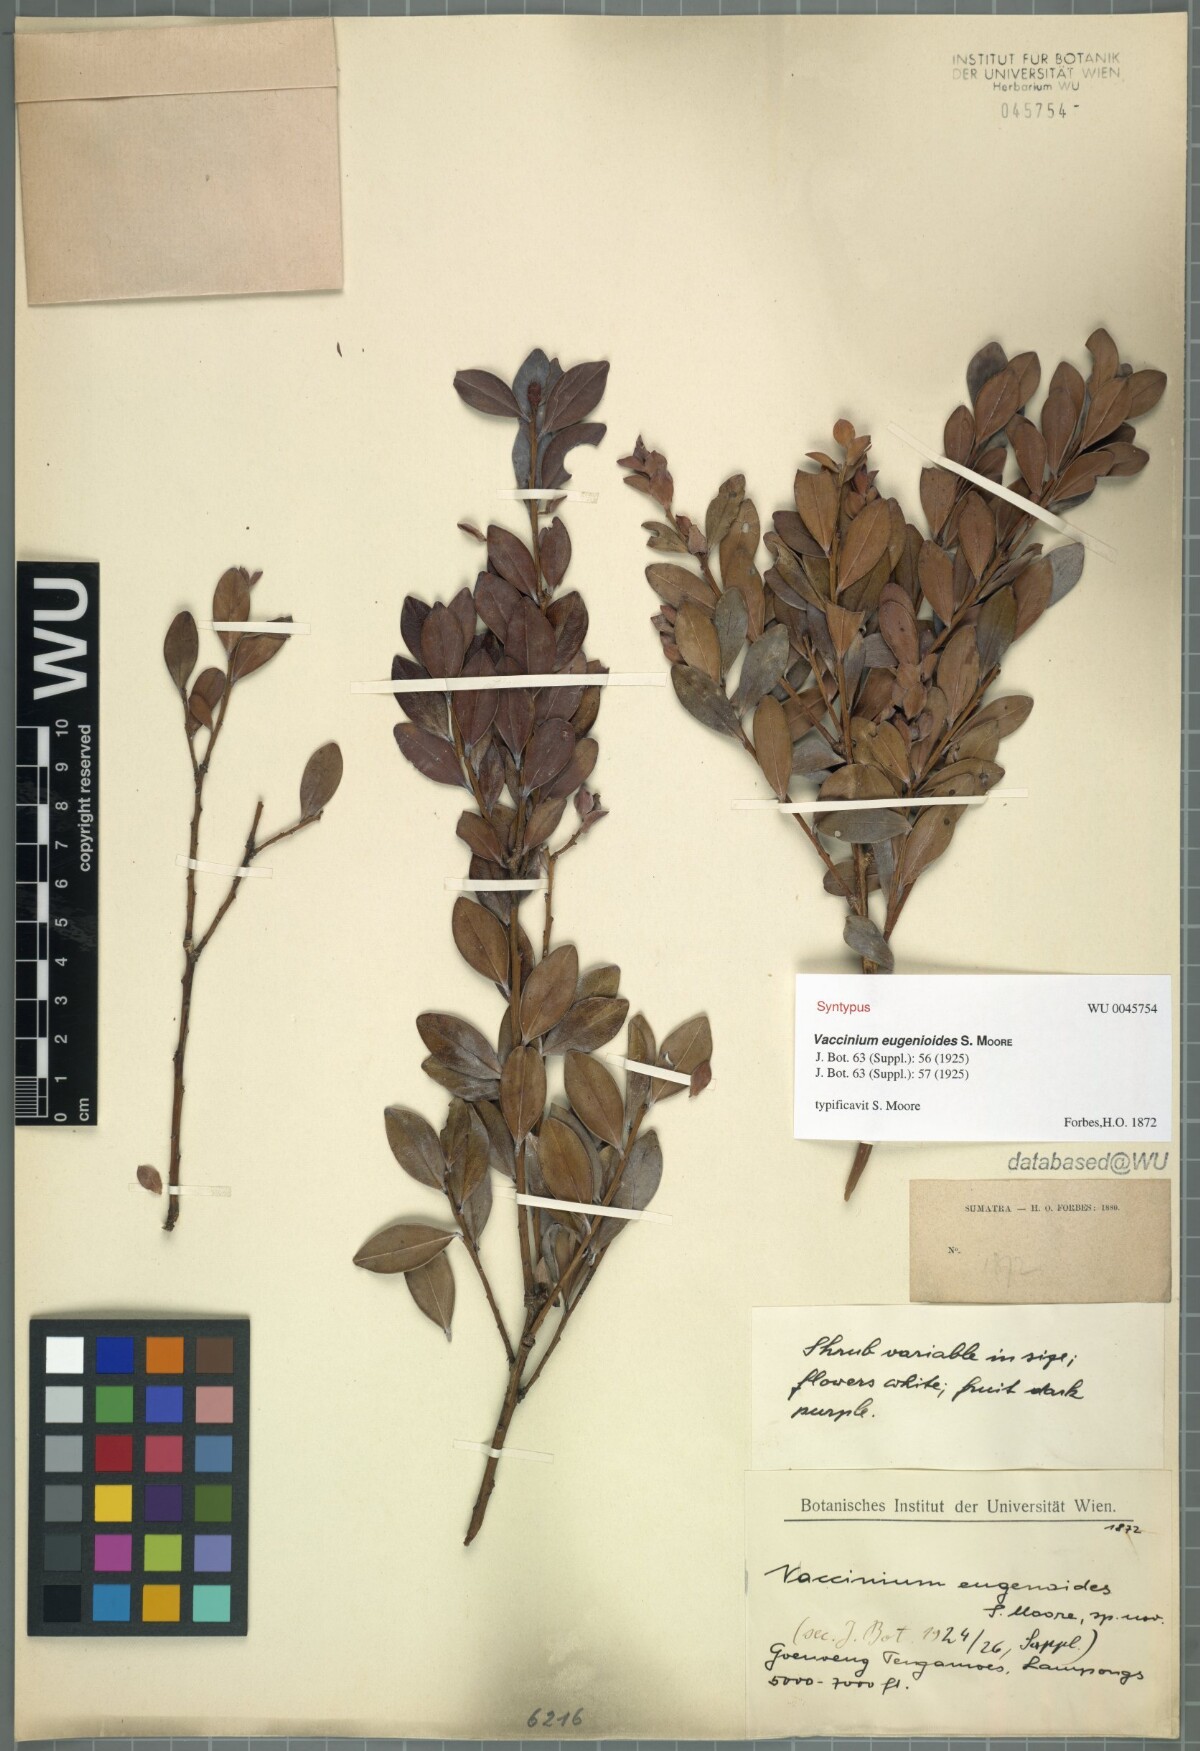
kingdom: Plantae
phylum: Tracheophyta
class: Magnoliopsida
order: Ericales
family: Ericaceae
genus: Vaccinium
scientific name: Vaccinium korinchense
